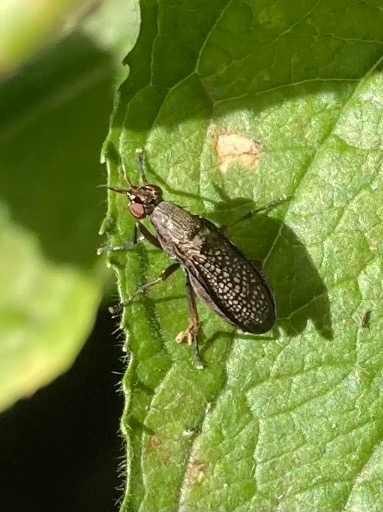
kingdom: Animalia
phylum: Arthropoda
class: Insecta
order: Diptera
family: Sciomyzidae
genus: Coremacera
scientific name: Coremacera marginata
